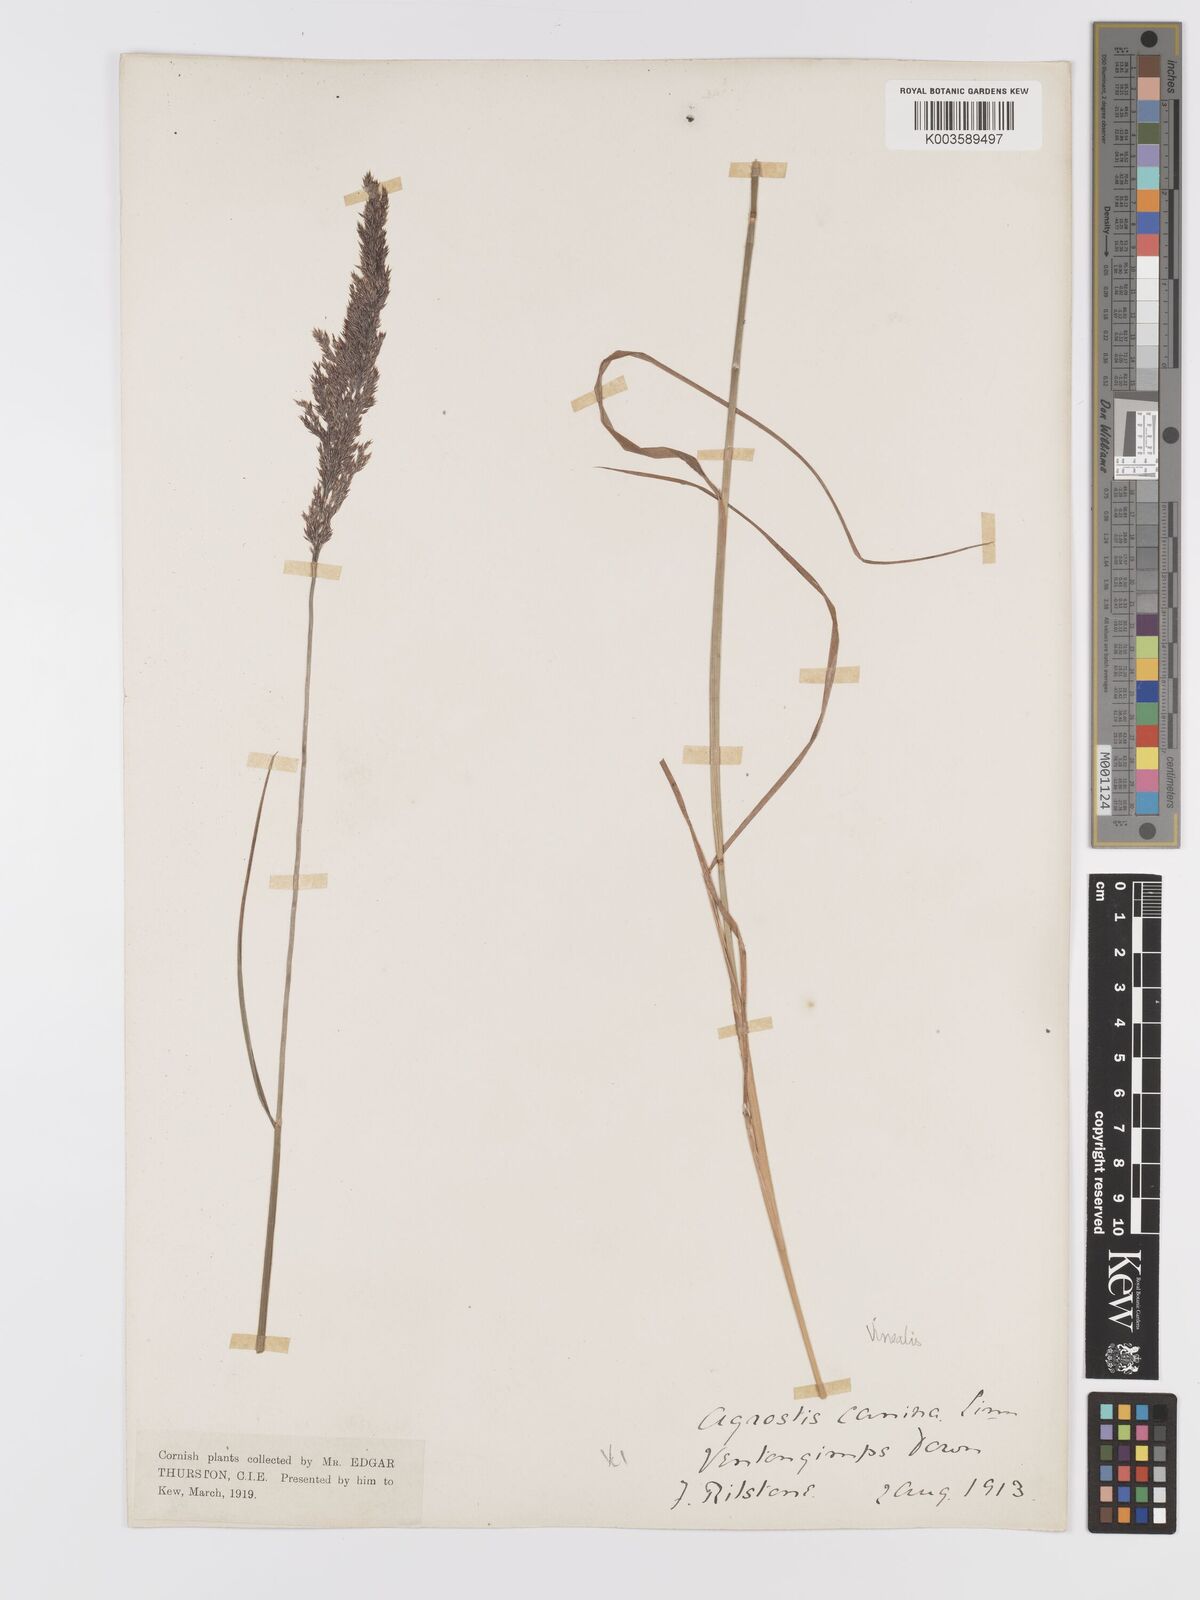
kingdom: Plantae
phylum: Tracheophyta
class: Liliopsida
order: Poales
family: Poaceae
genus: Agrostis
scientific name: Agrostis
